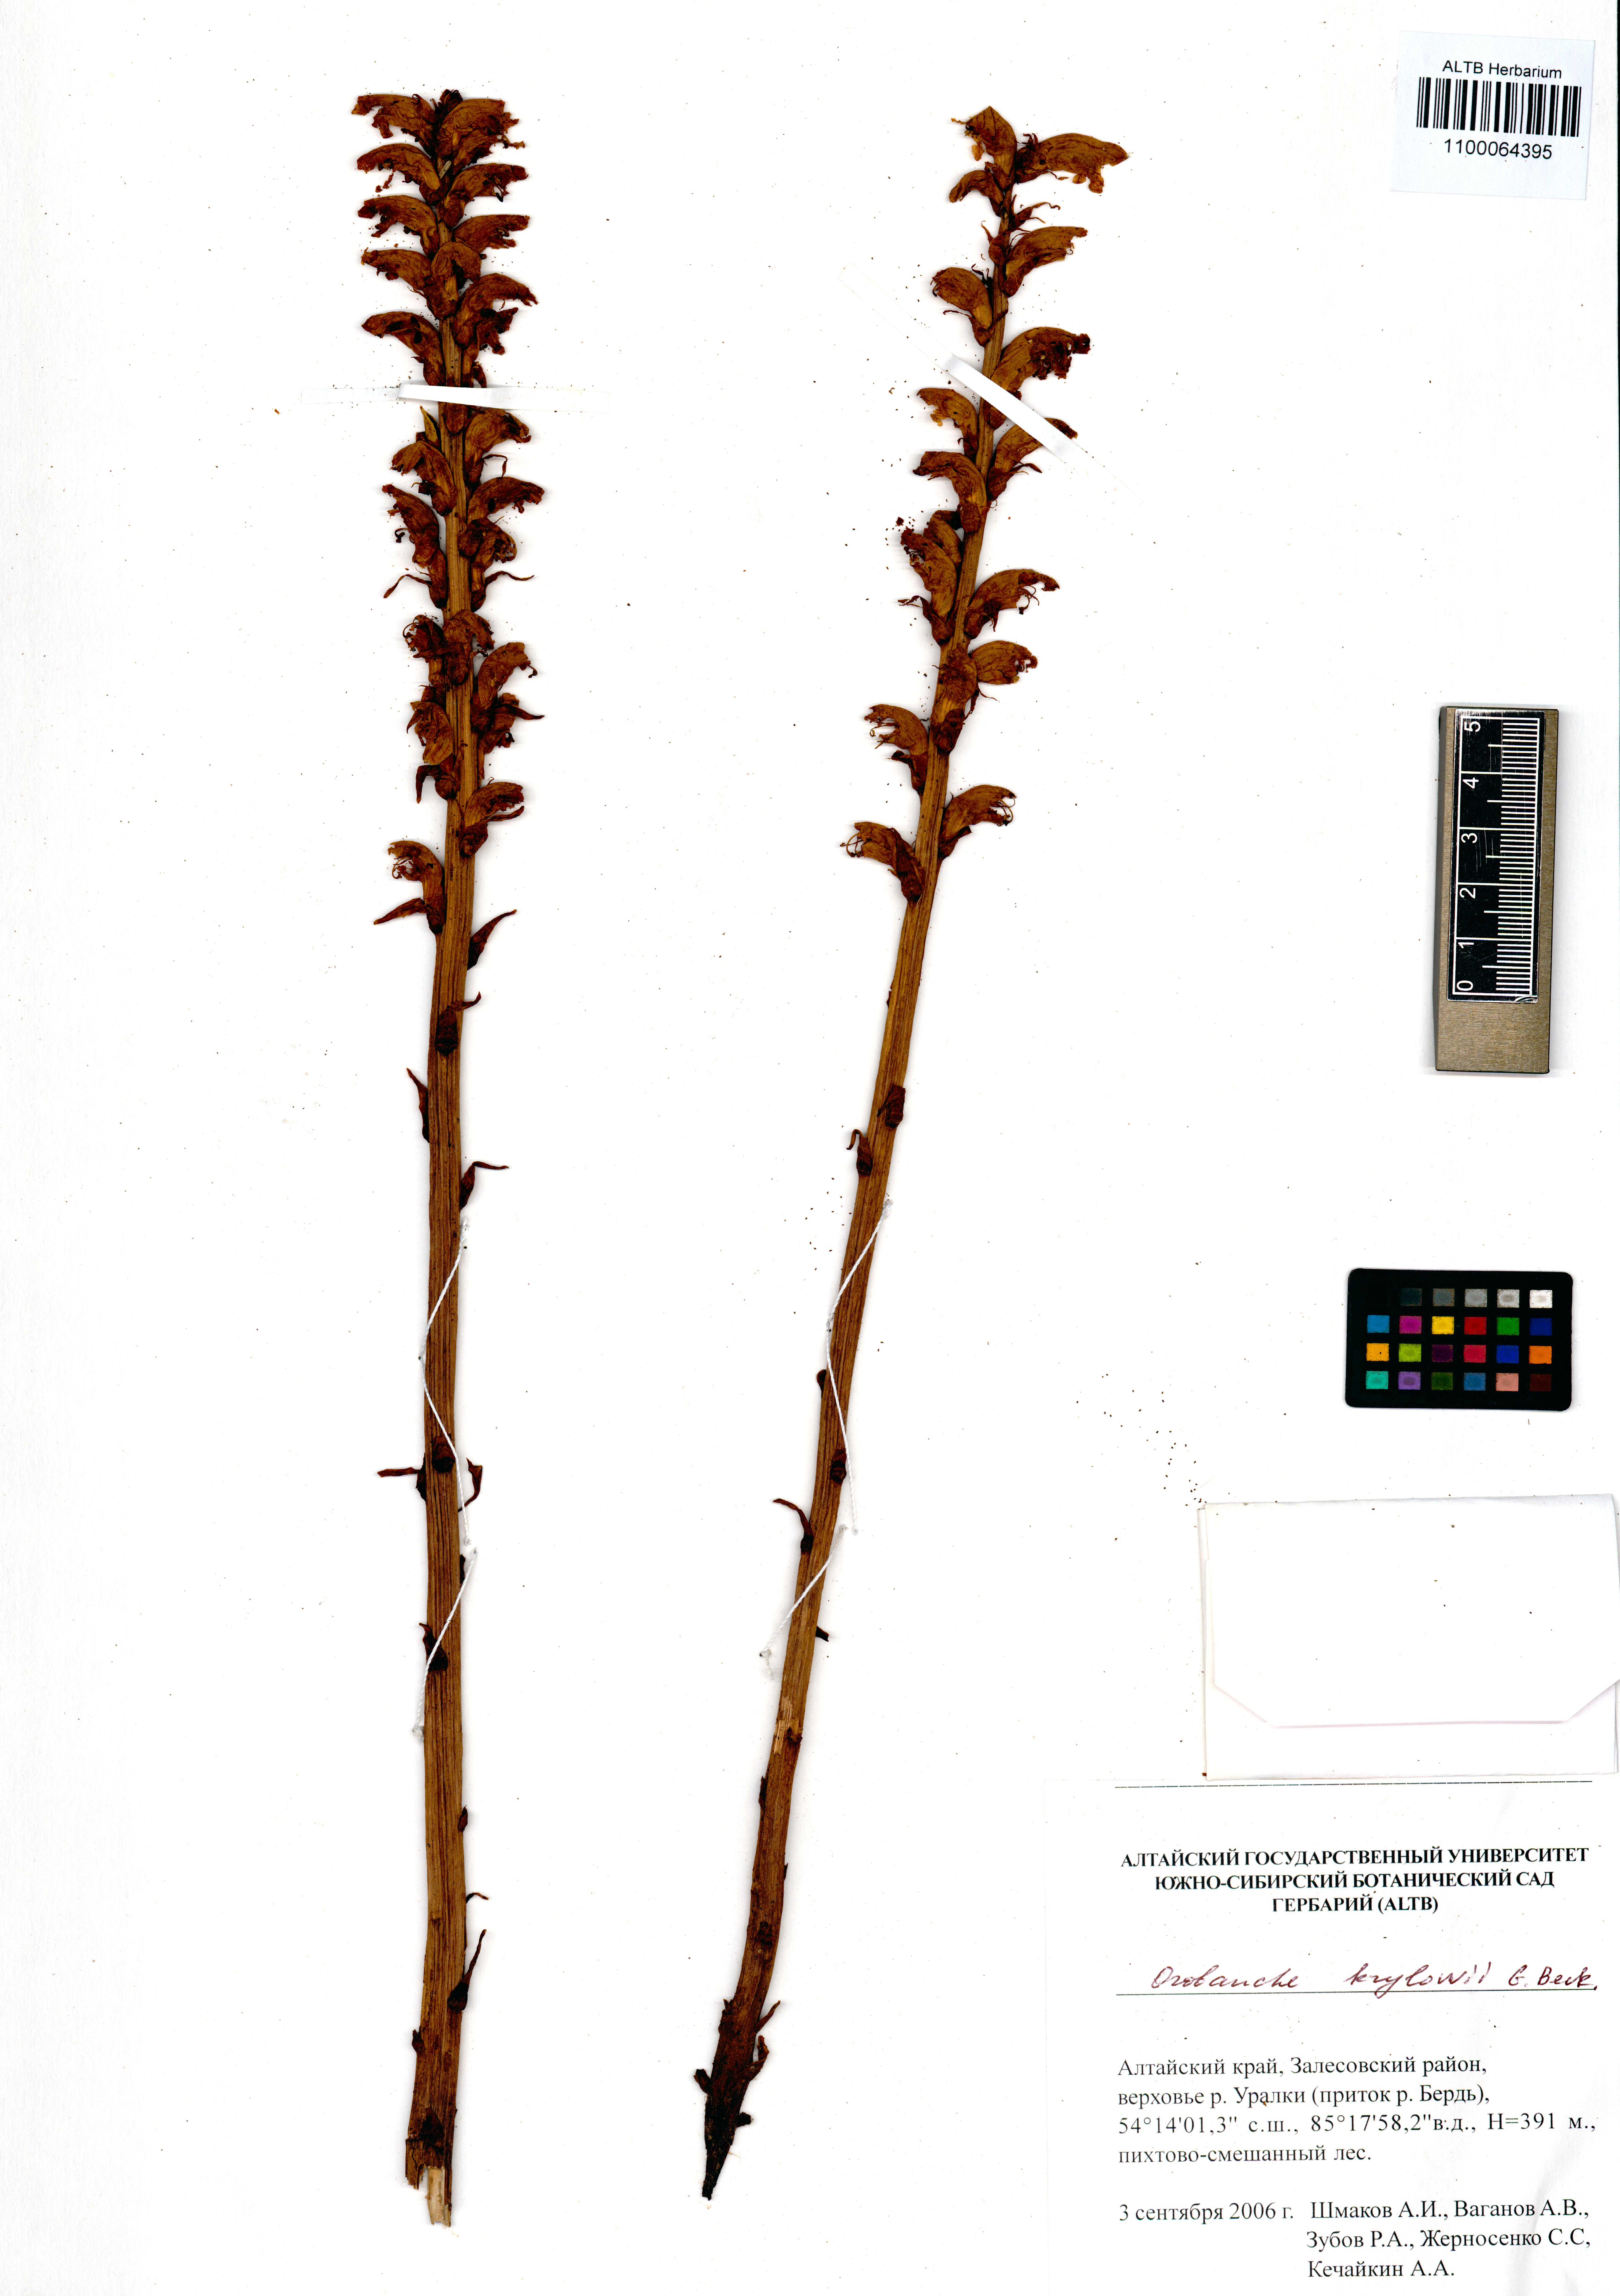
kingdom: Plantae
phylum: Tracheophyta
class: Magnoliopsida
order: Lamiales
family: Orobanchaceae
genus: Orobanche
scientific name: Orobanche krylowii
